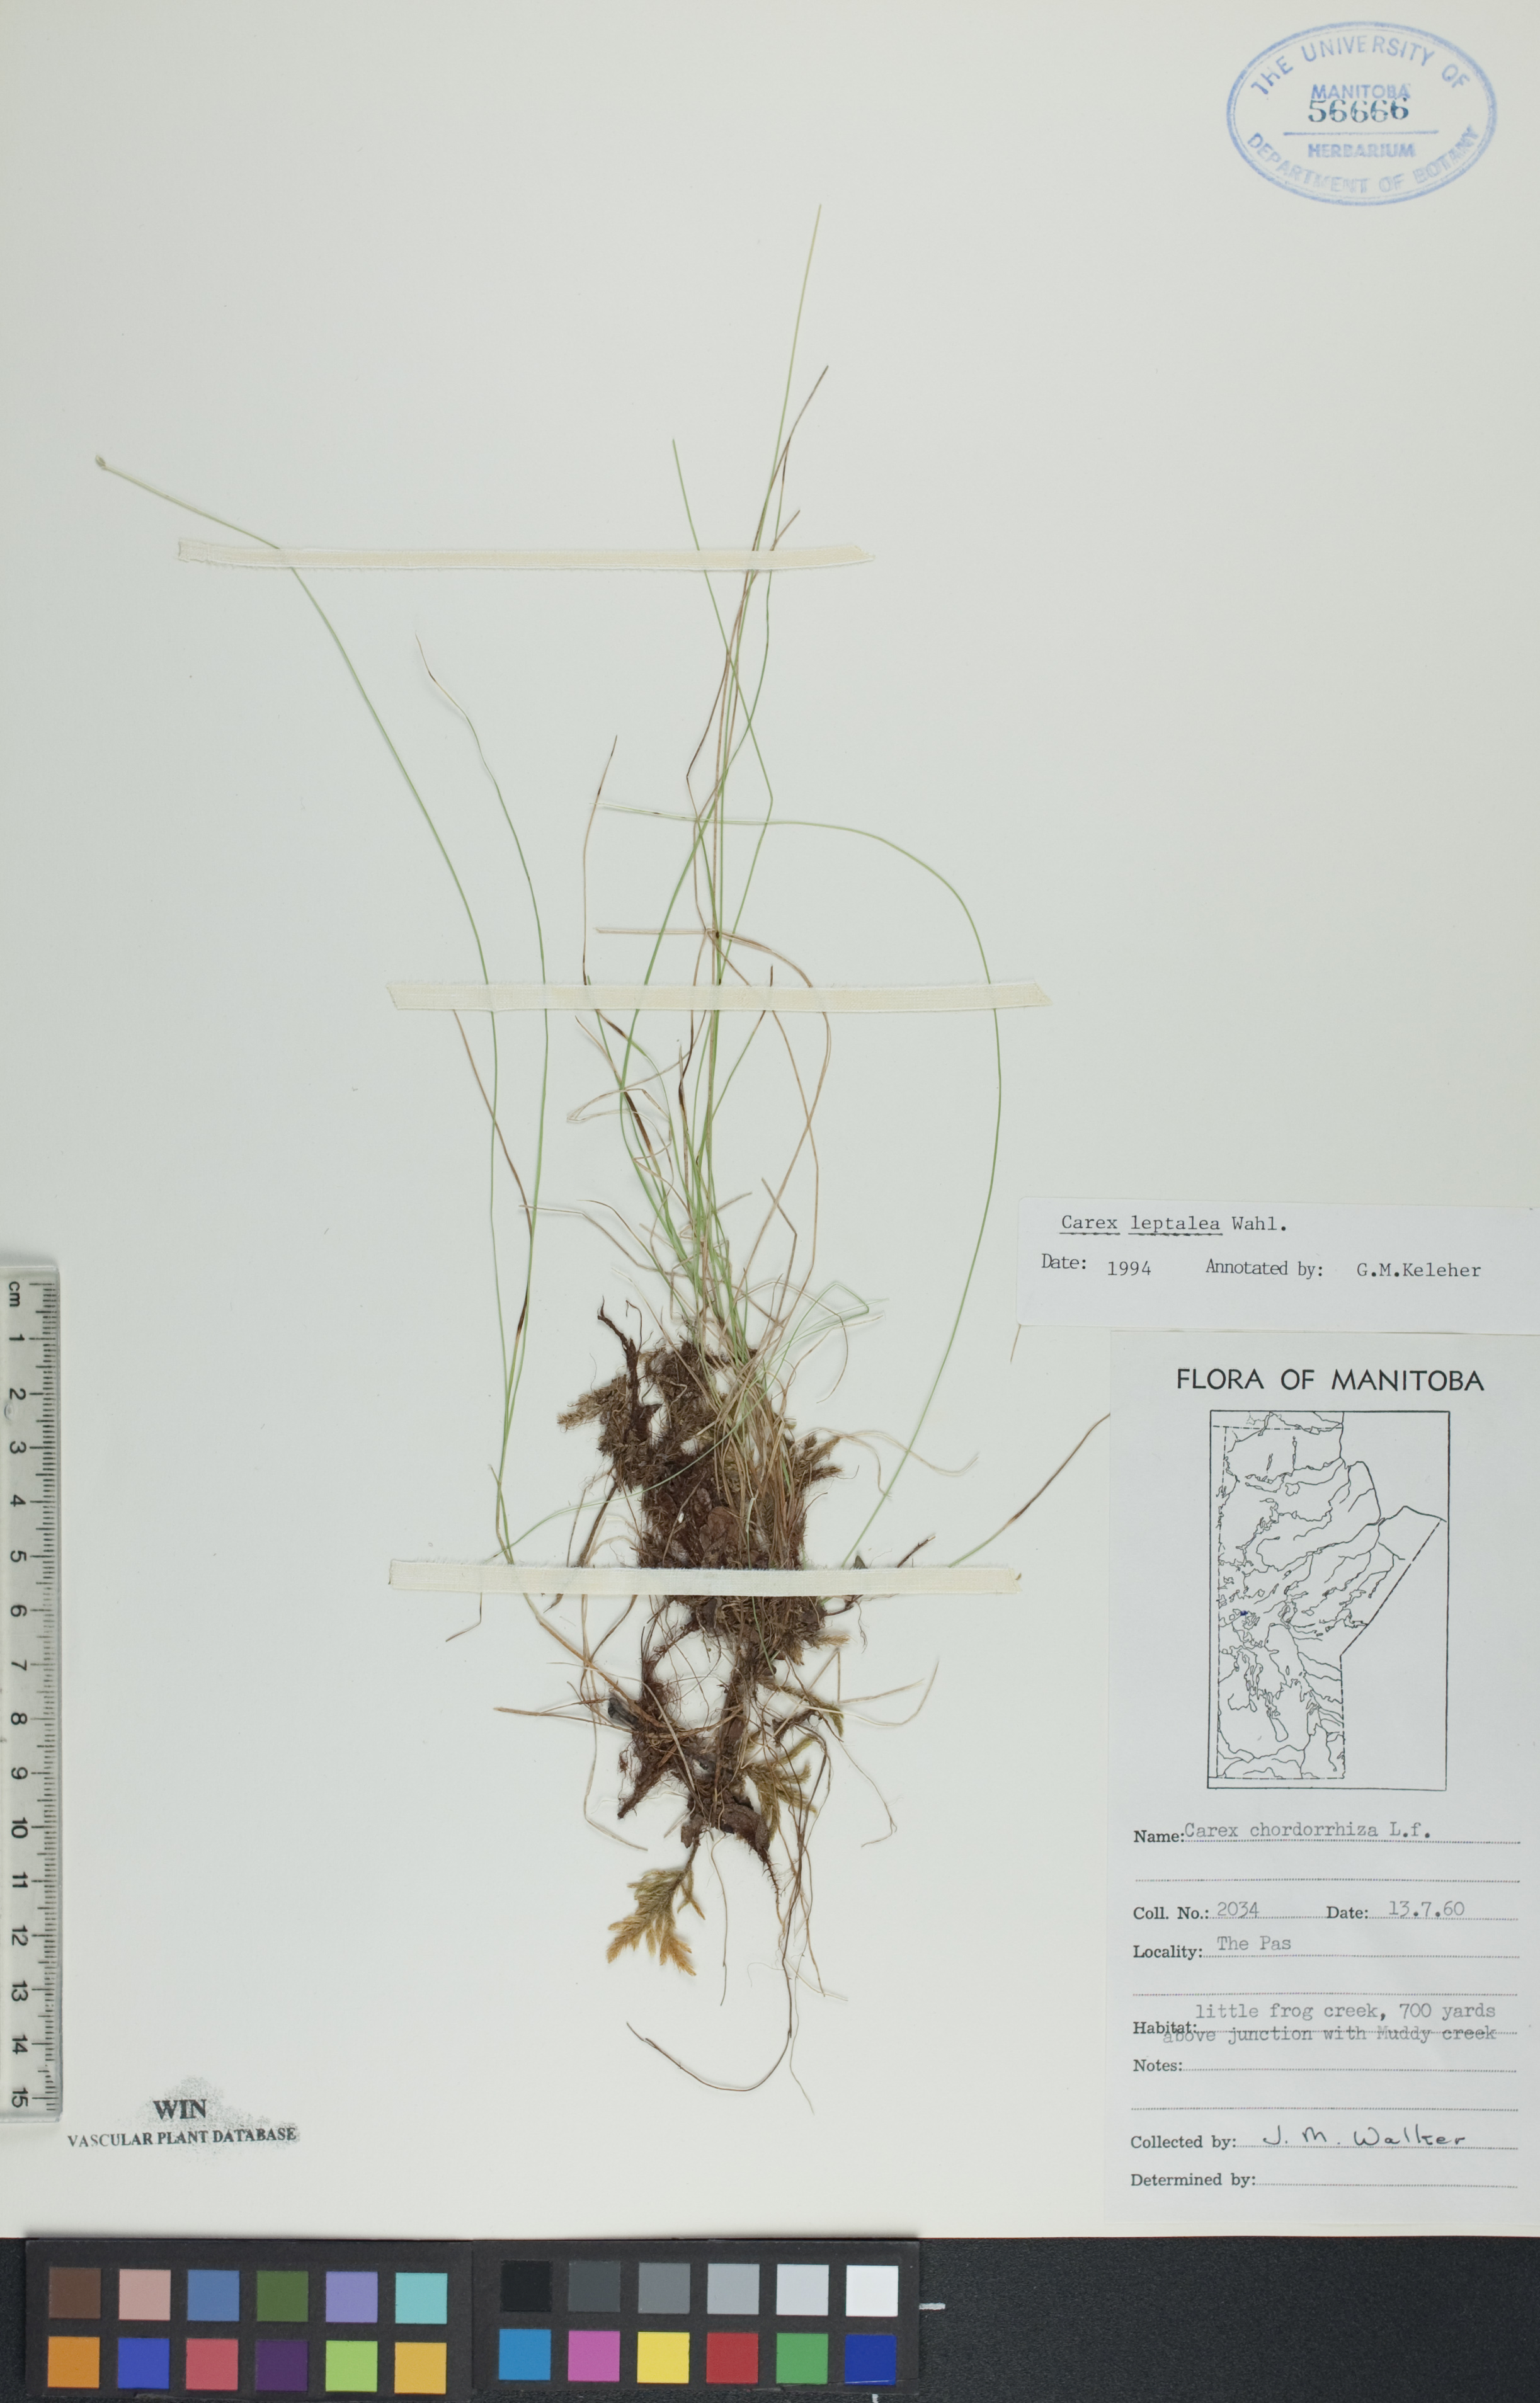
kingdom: Plantae
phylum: Tracheophyta
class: Liliopsida
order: Poales
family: Cyperaceae
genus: Carex
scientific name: Carex leptalea
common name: Bristly-stalked sedge
